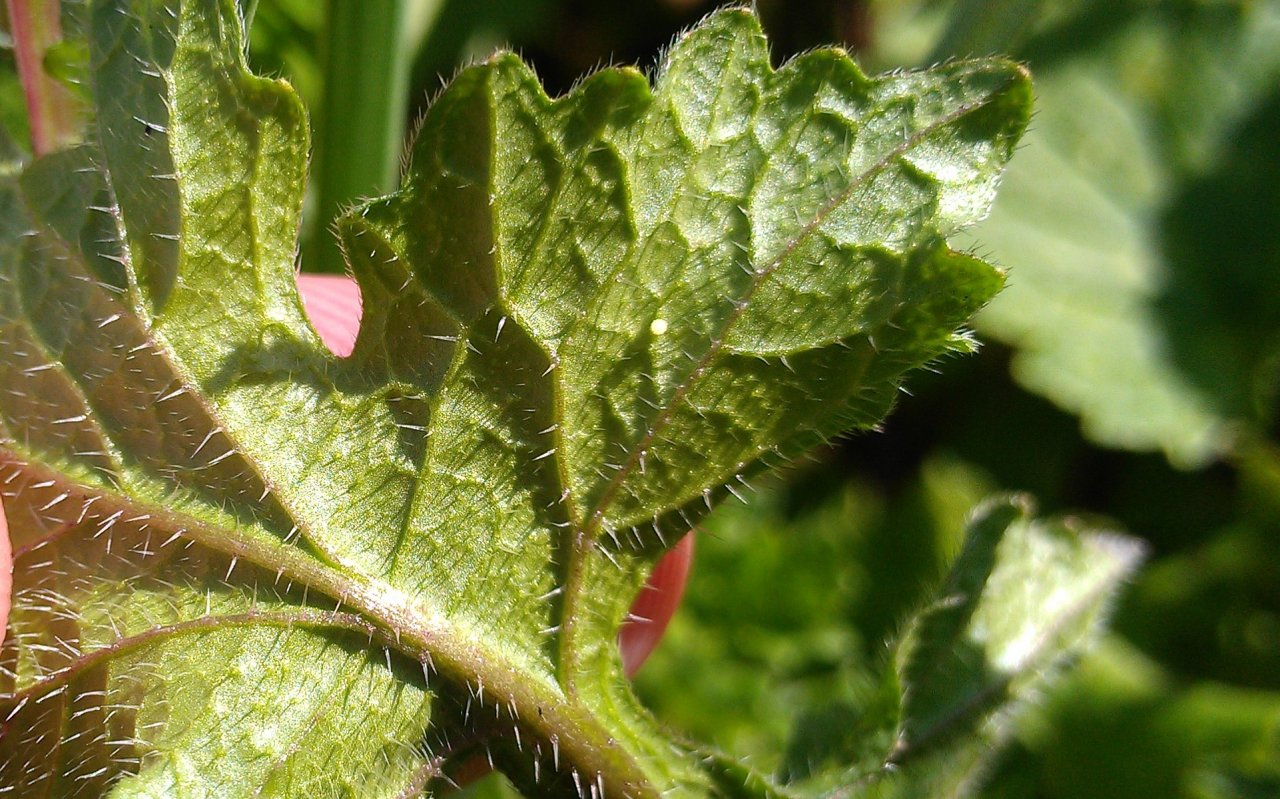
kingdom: Animalia
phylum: Arthropoda
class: Insecta
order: Lepidoptera
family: Pieridae
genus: Pieris
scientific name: Pieris rapae
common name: Cabbage White
